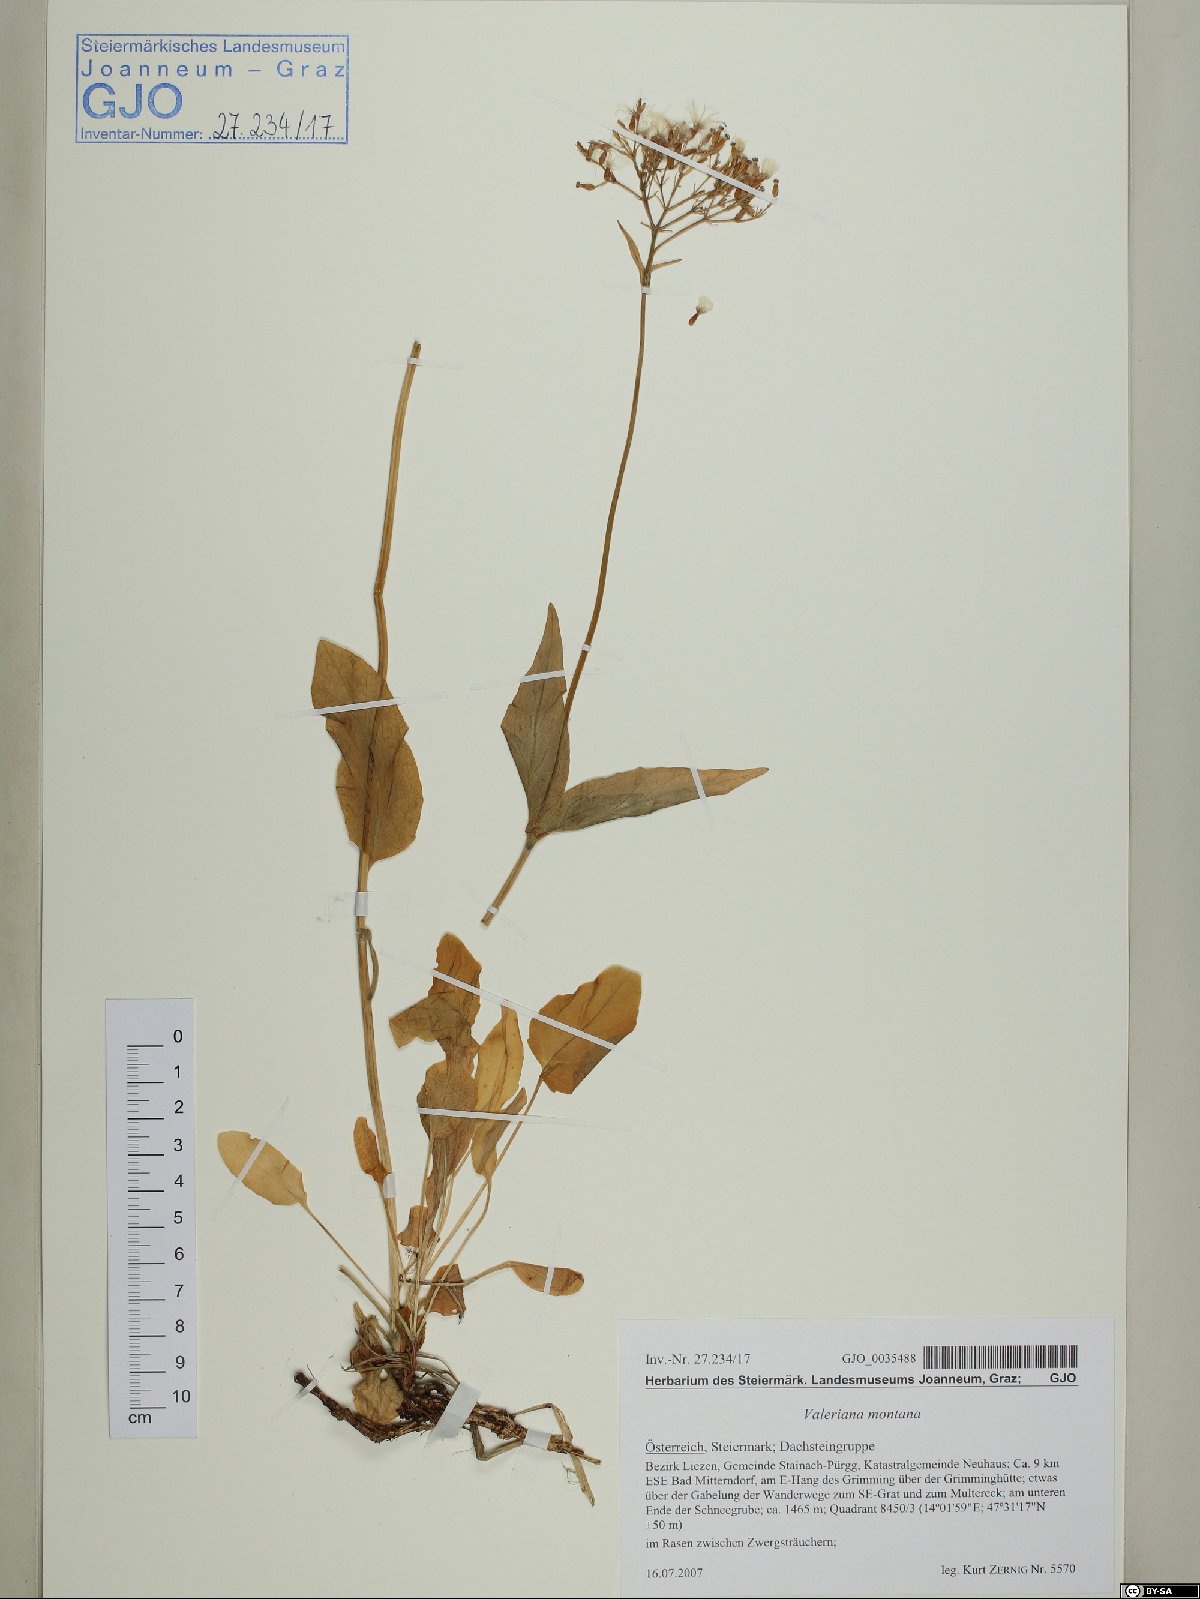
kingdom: Plantae
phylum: Tracheophyta
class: Magnoliopsida
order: Dipsacales
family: Caprifoliaceae
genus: Valeriana
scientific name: Valeriana montana
